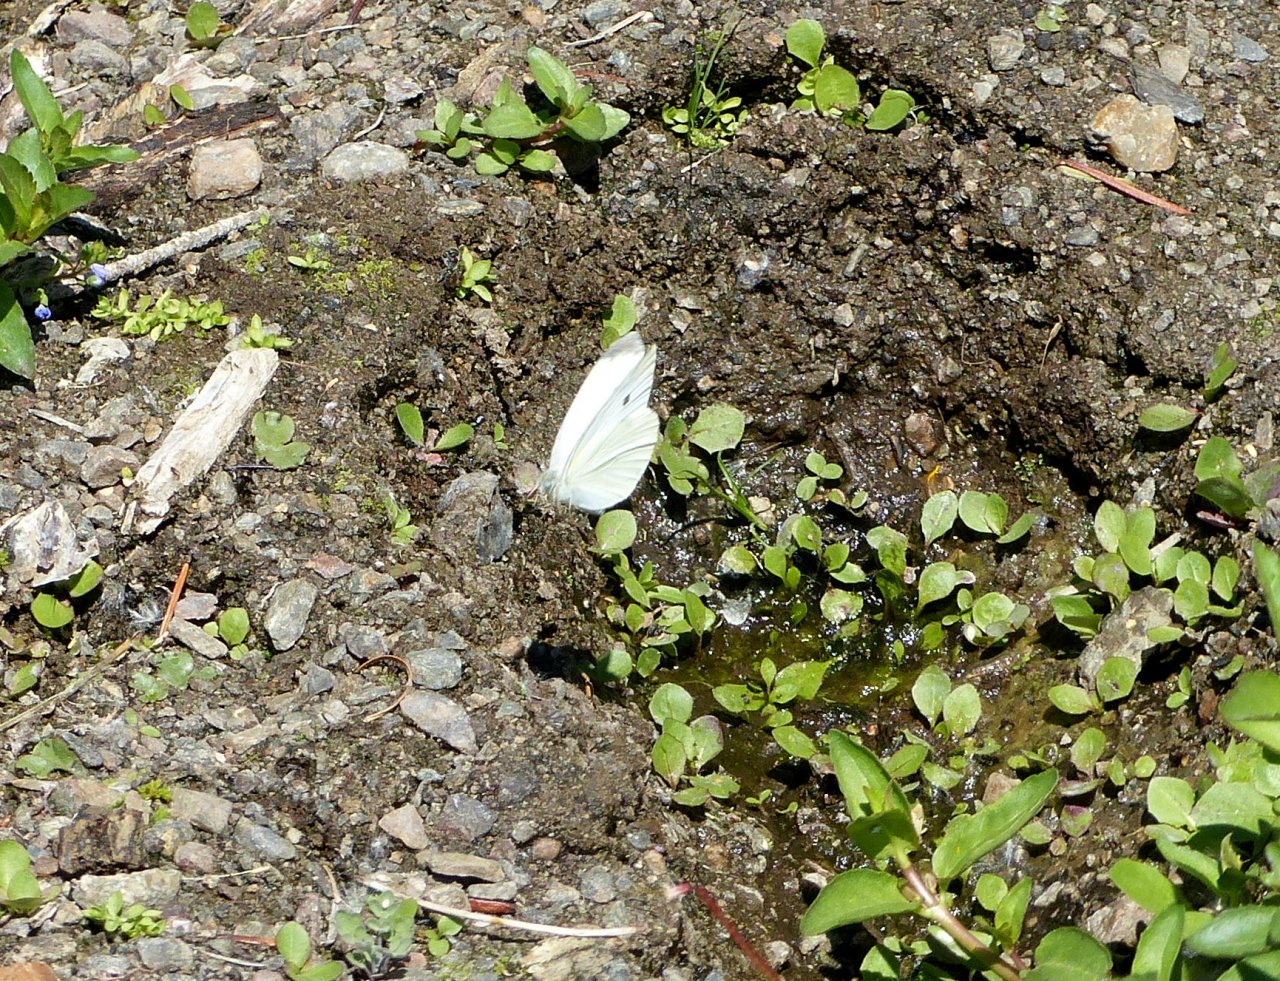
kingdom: Animalia
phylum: Arthropoda
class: Insecta
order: Lepidoptera
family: Pieridae
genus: Pieris
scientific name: Pieris rapae
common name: Cabbage White
